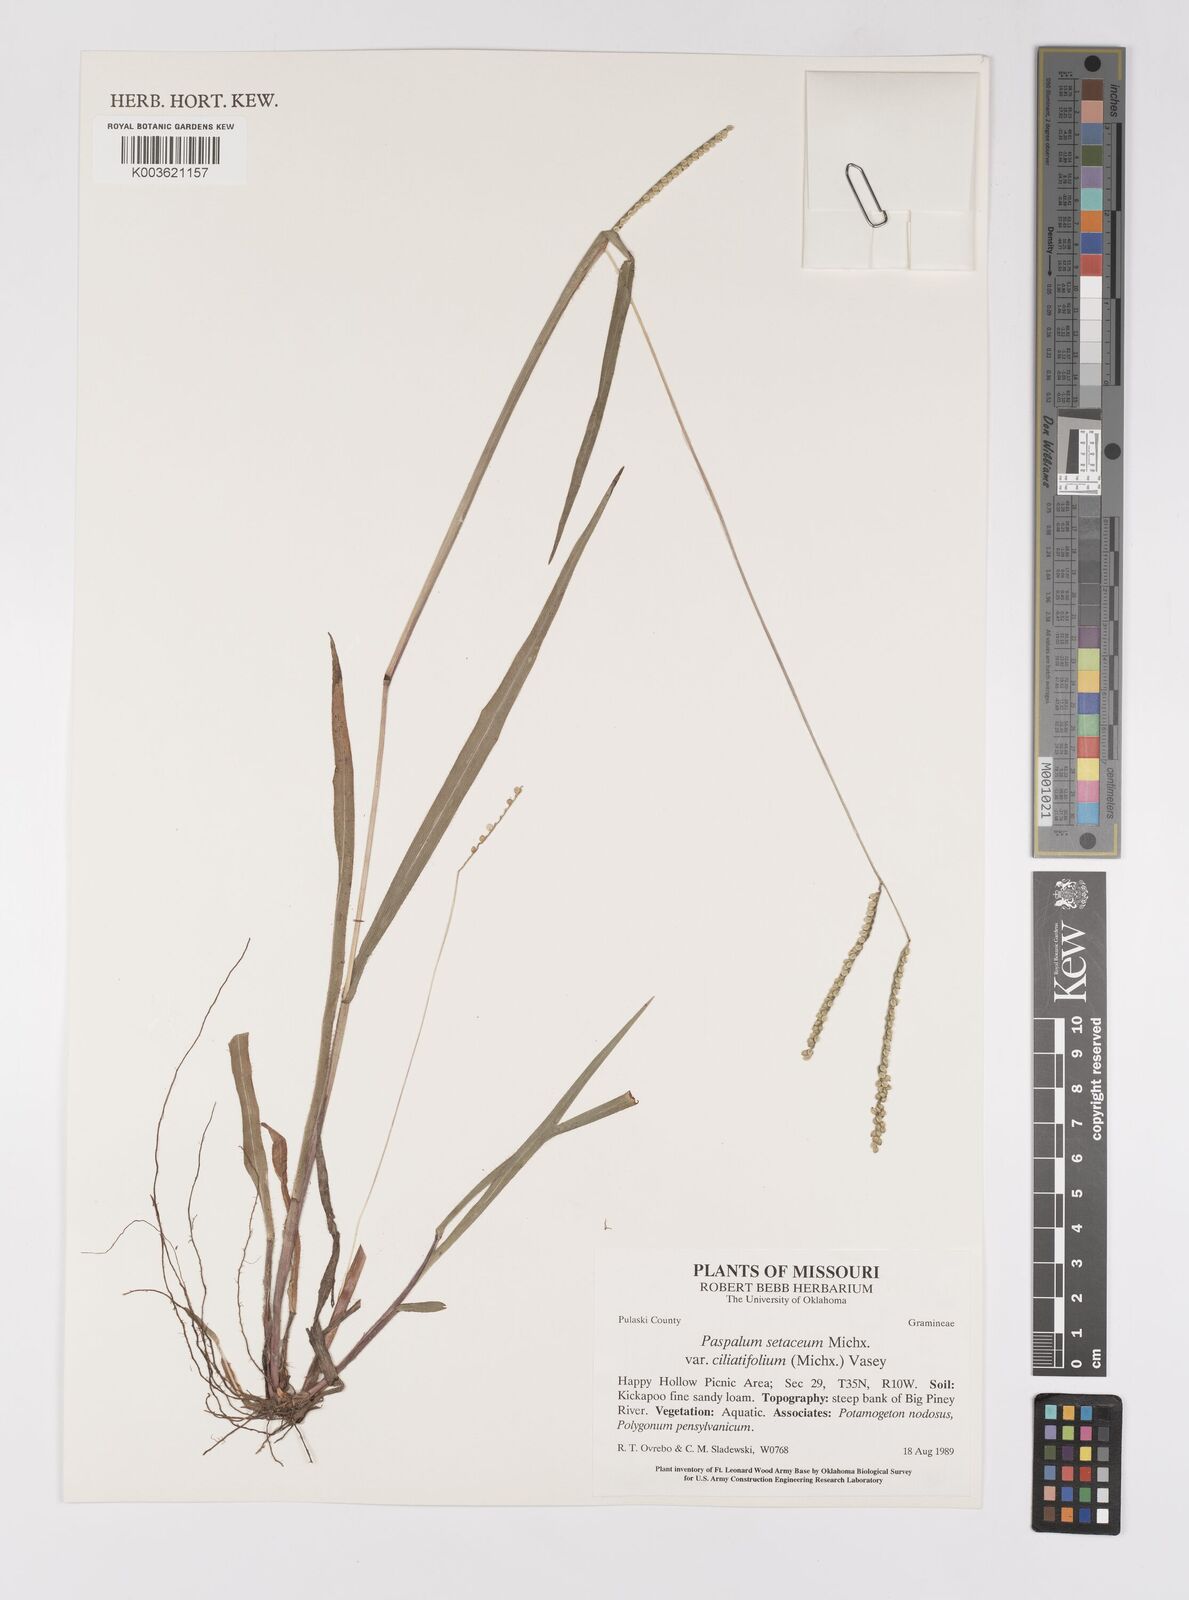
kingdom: Plantae
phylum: Tracheophyta
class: Liliopsida
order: Poales
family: Poaceae
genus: Paspalum
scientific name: Paspalum setaceum
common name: Slender paspalum
